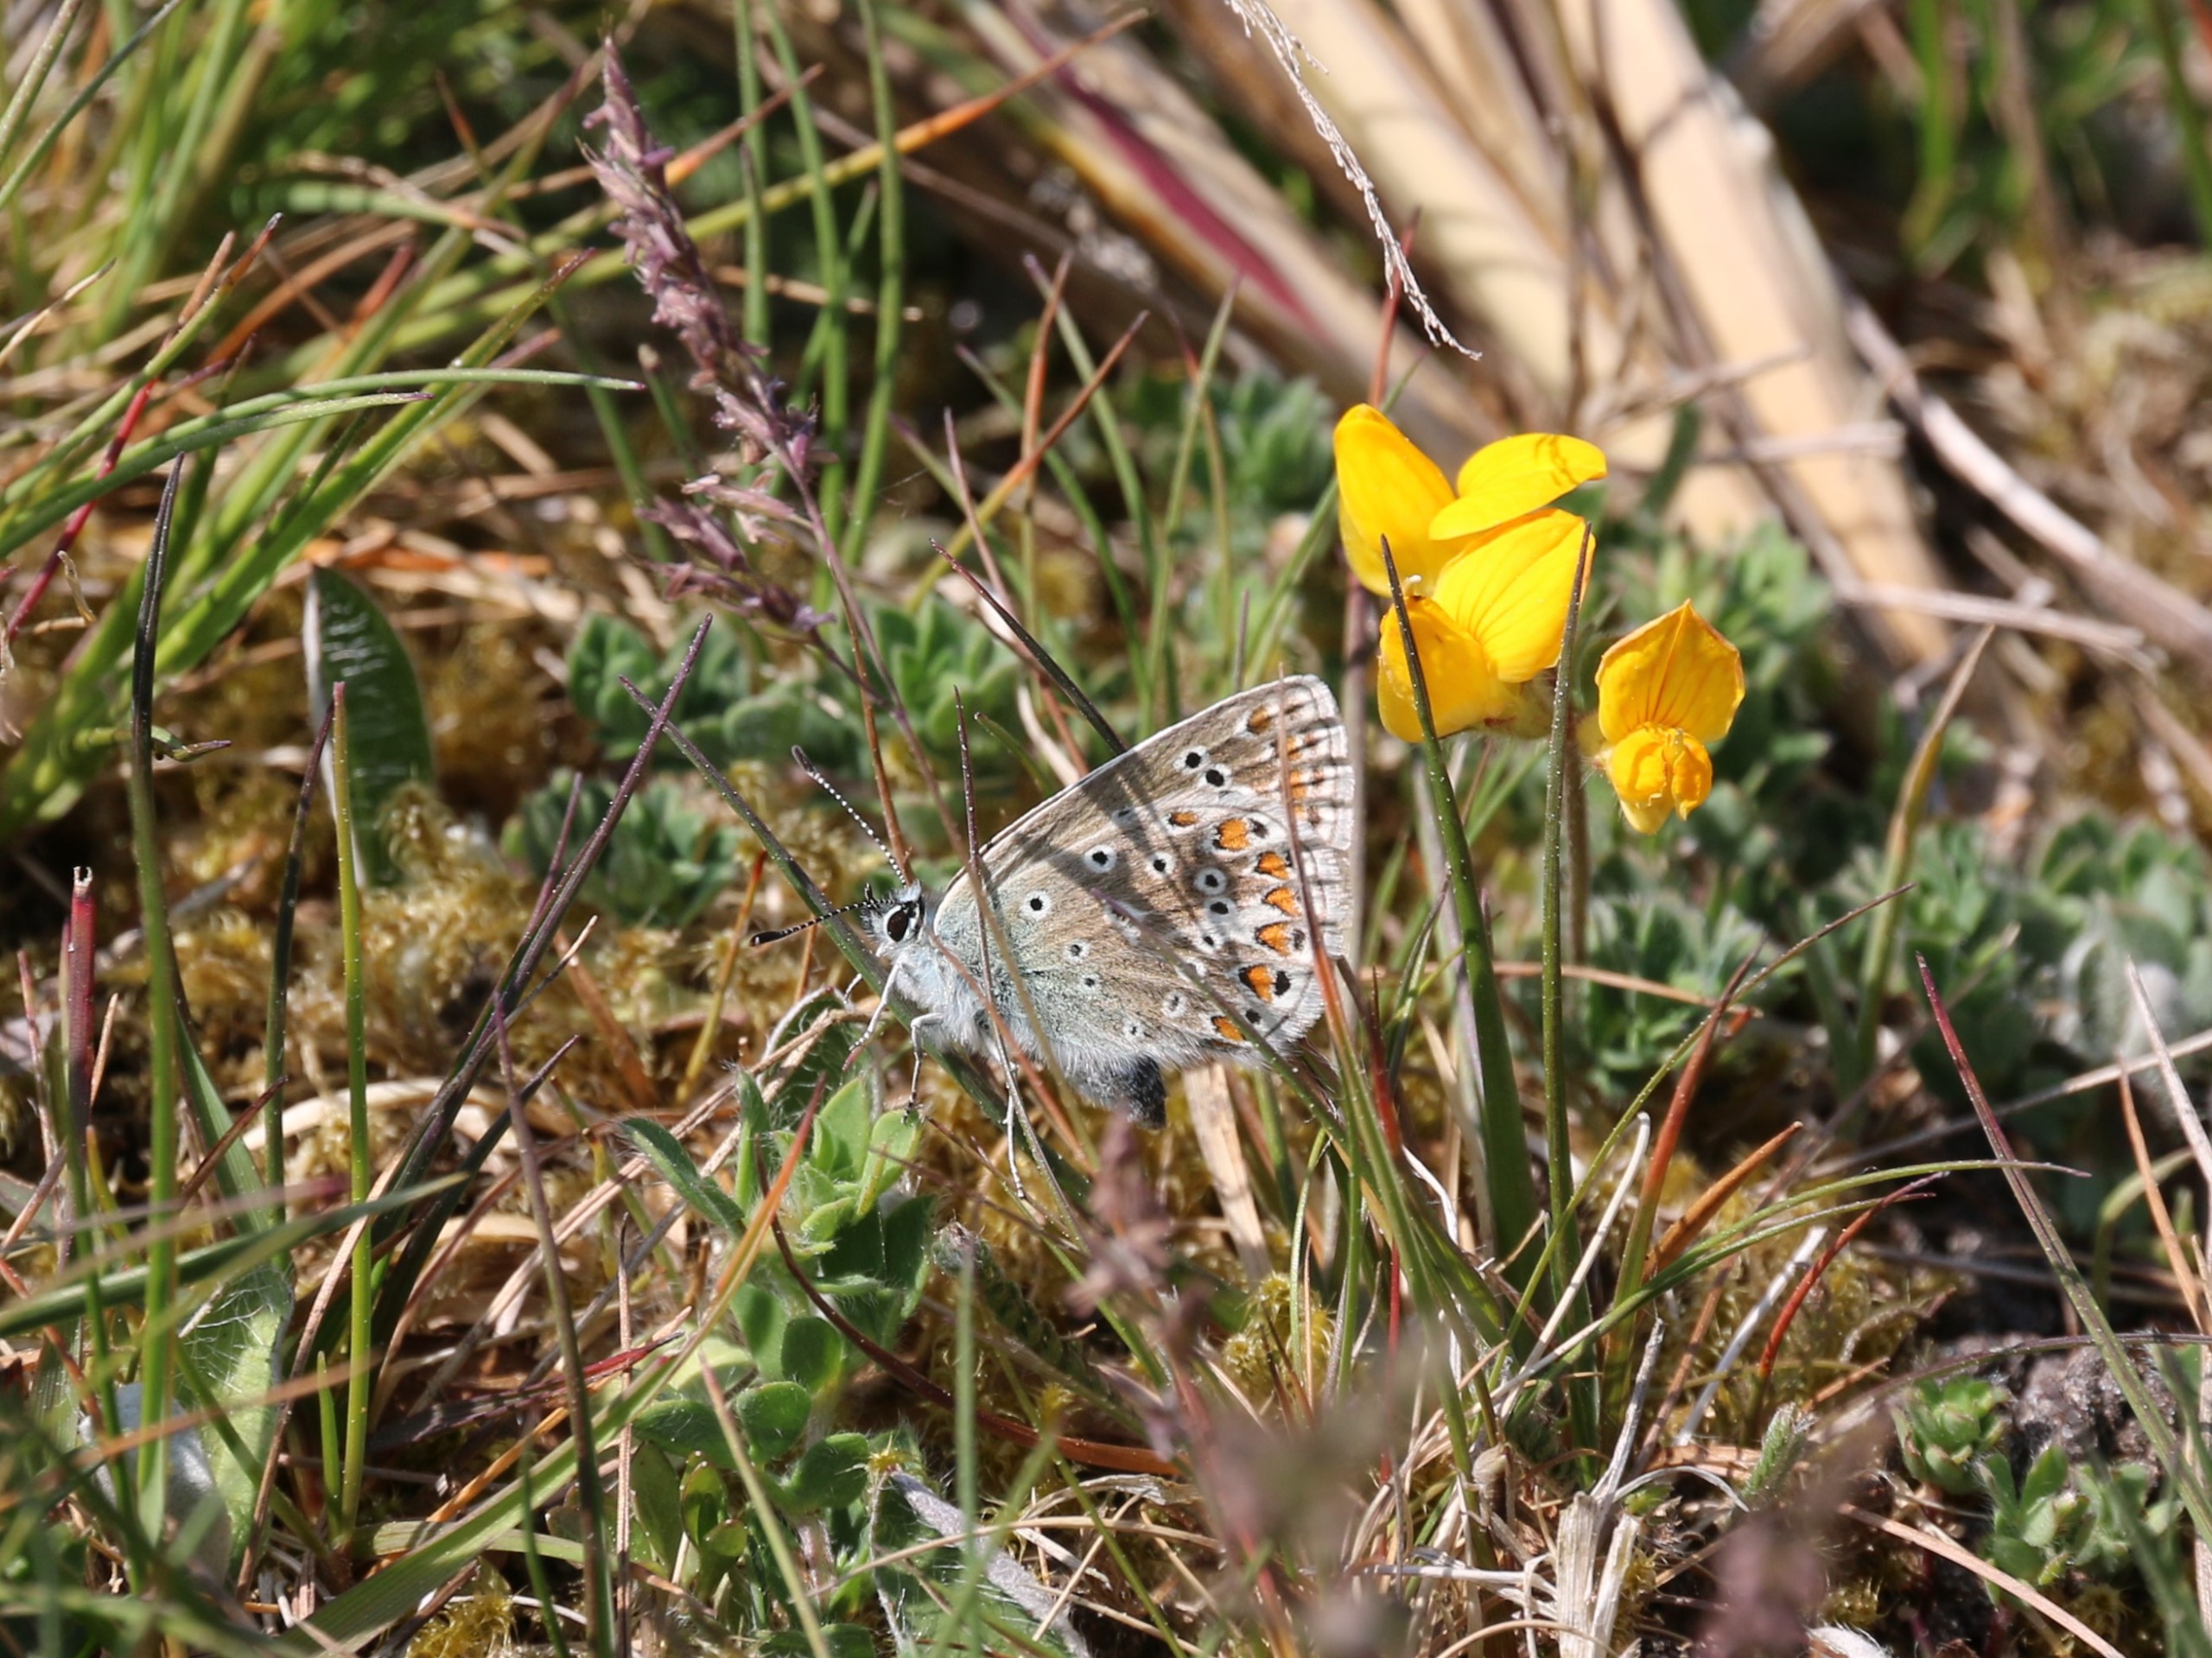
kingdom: Animalia
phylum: Arthropoda
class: Insecta
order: Lepidoptera
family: Lycaenidae
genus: Polyommatus
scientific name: Polyommatus icarus
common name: Almindelig blåfugl
